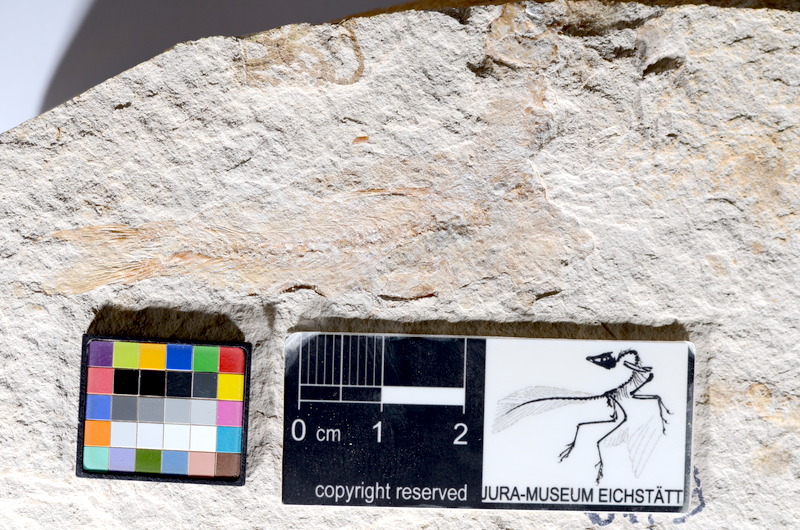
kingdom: Animalia
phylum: Chordata
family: Ascalaboidae
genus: Tharsis
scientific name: Tharsis dubius
